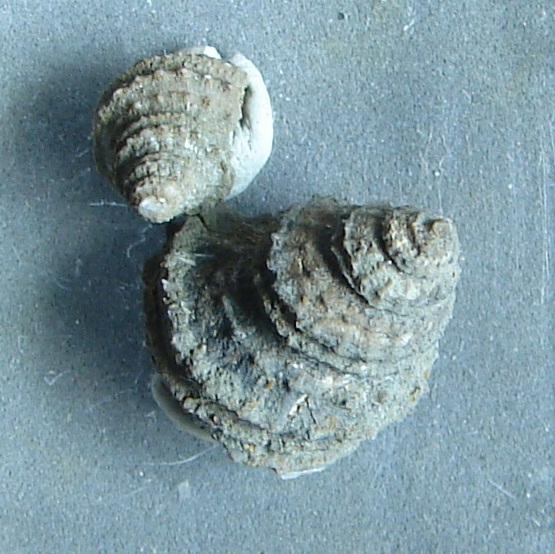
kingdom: Animalia
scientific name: Animalia
